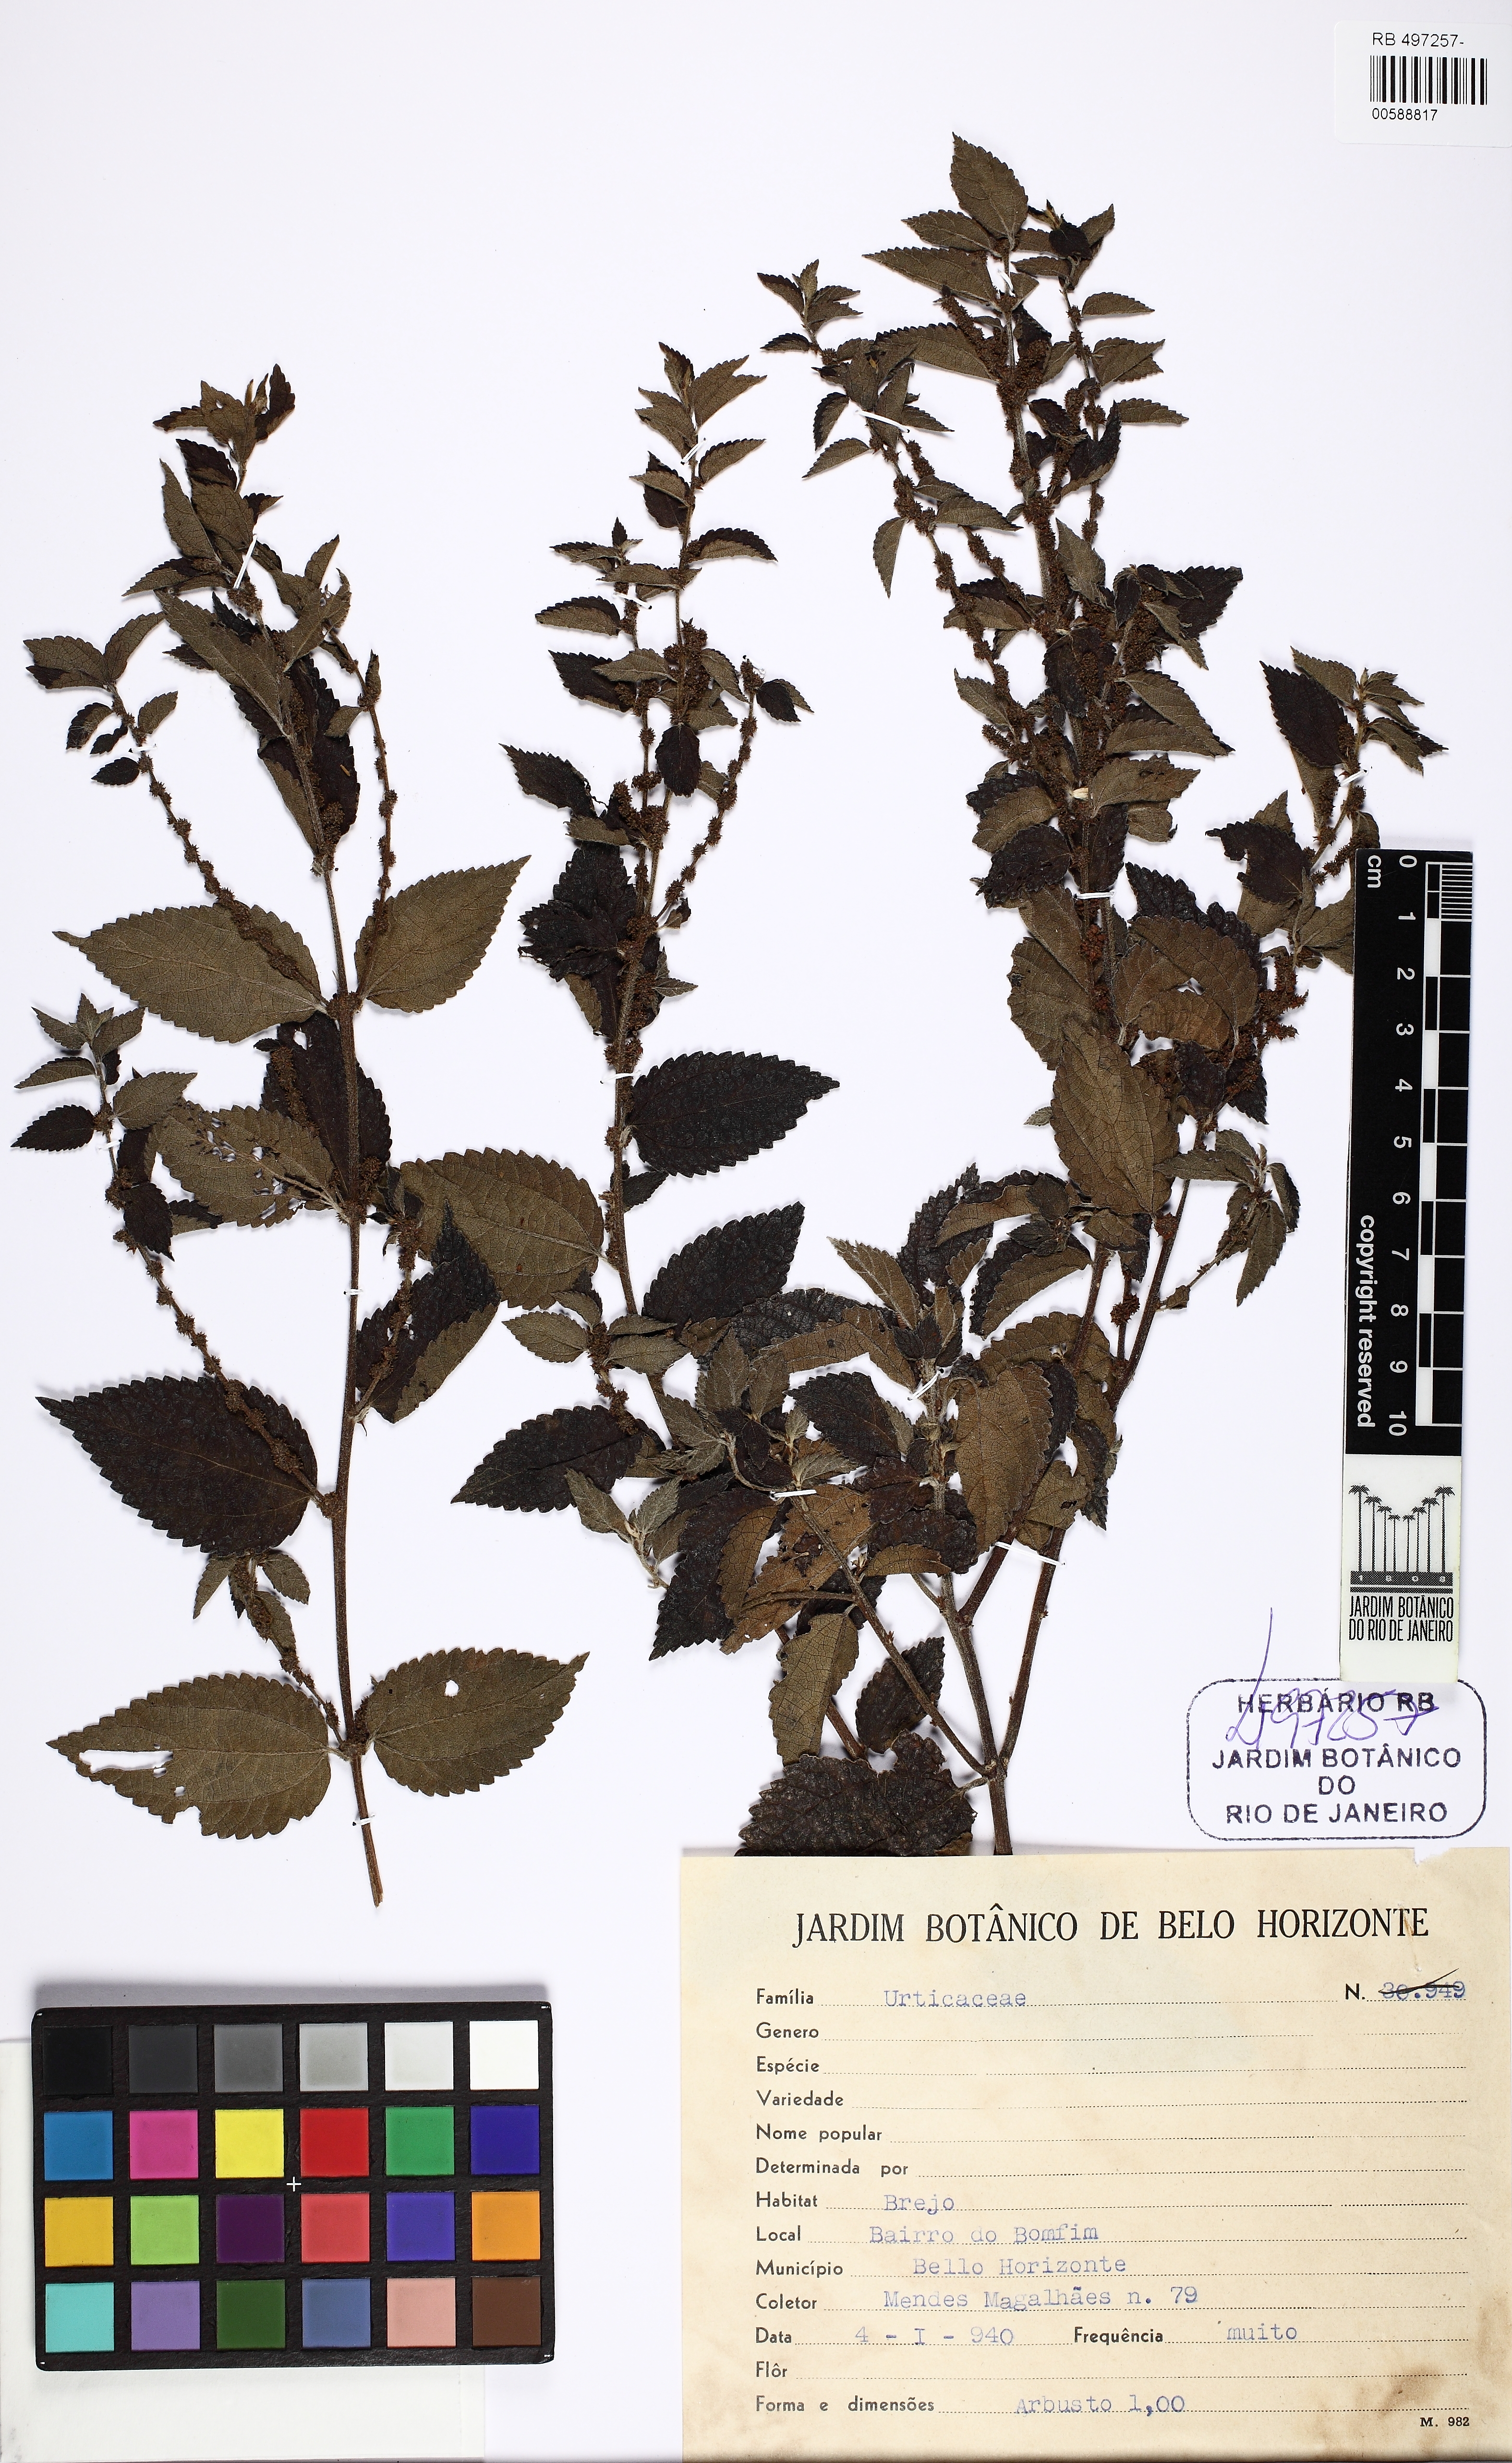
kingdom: Plantae
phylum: Tracheophyta
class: Magnoliopsida
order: Rosales
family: Urticaceae
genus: Phenax
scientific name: Phenax
